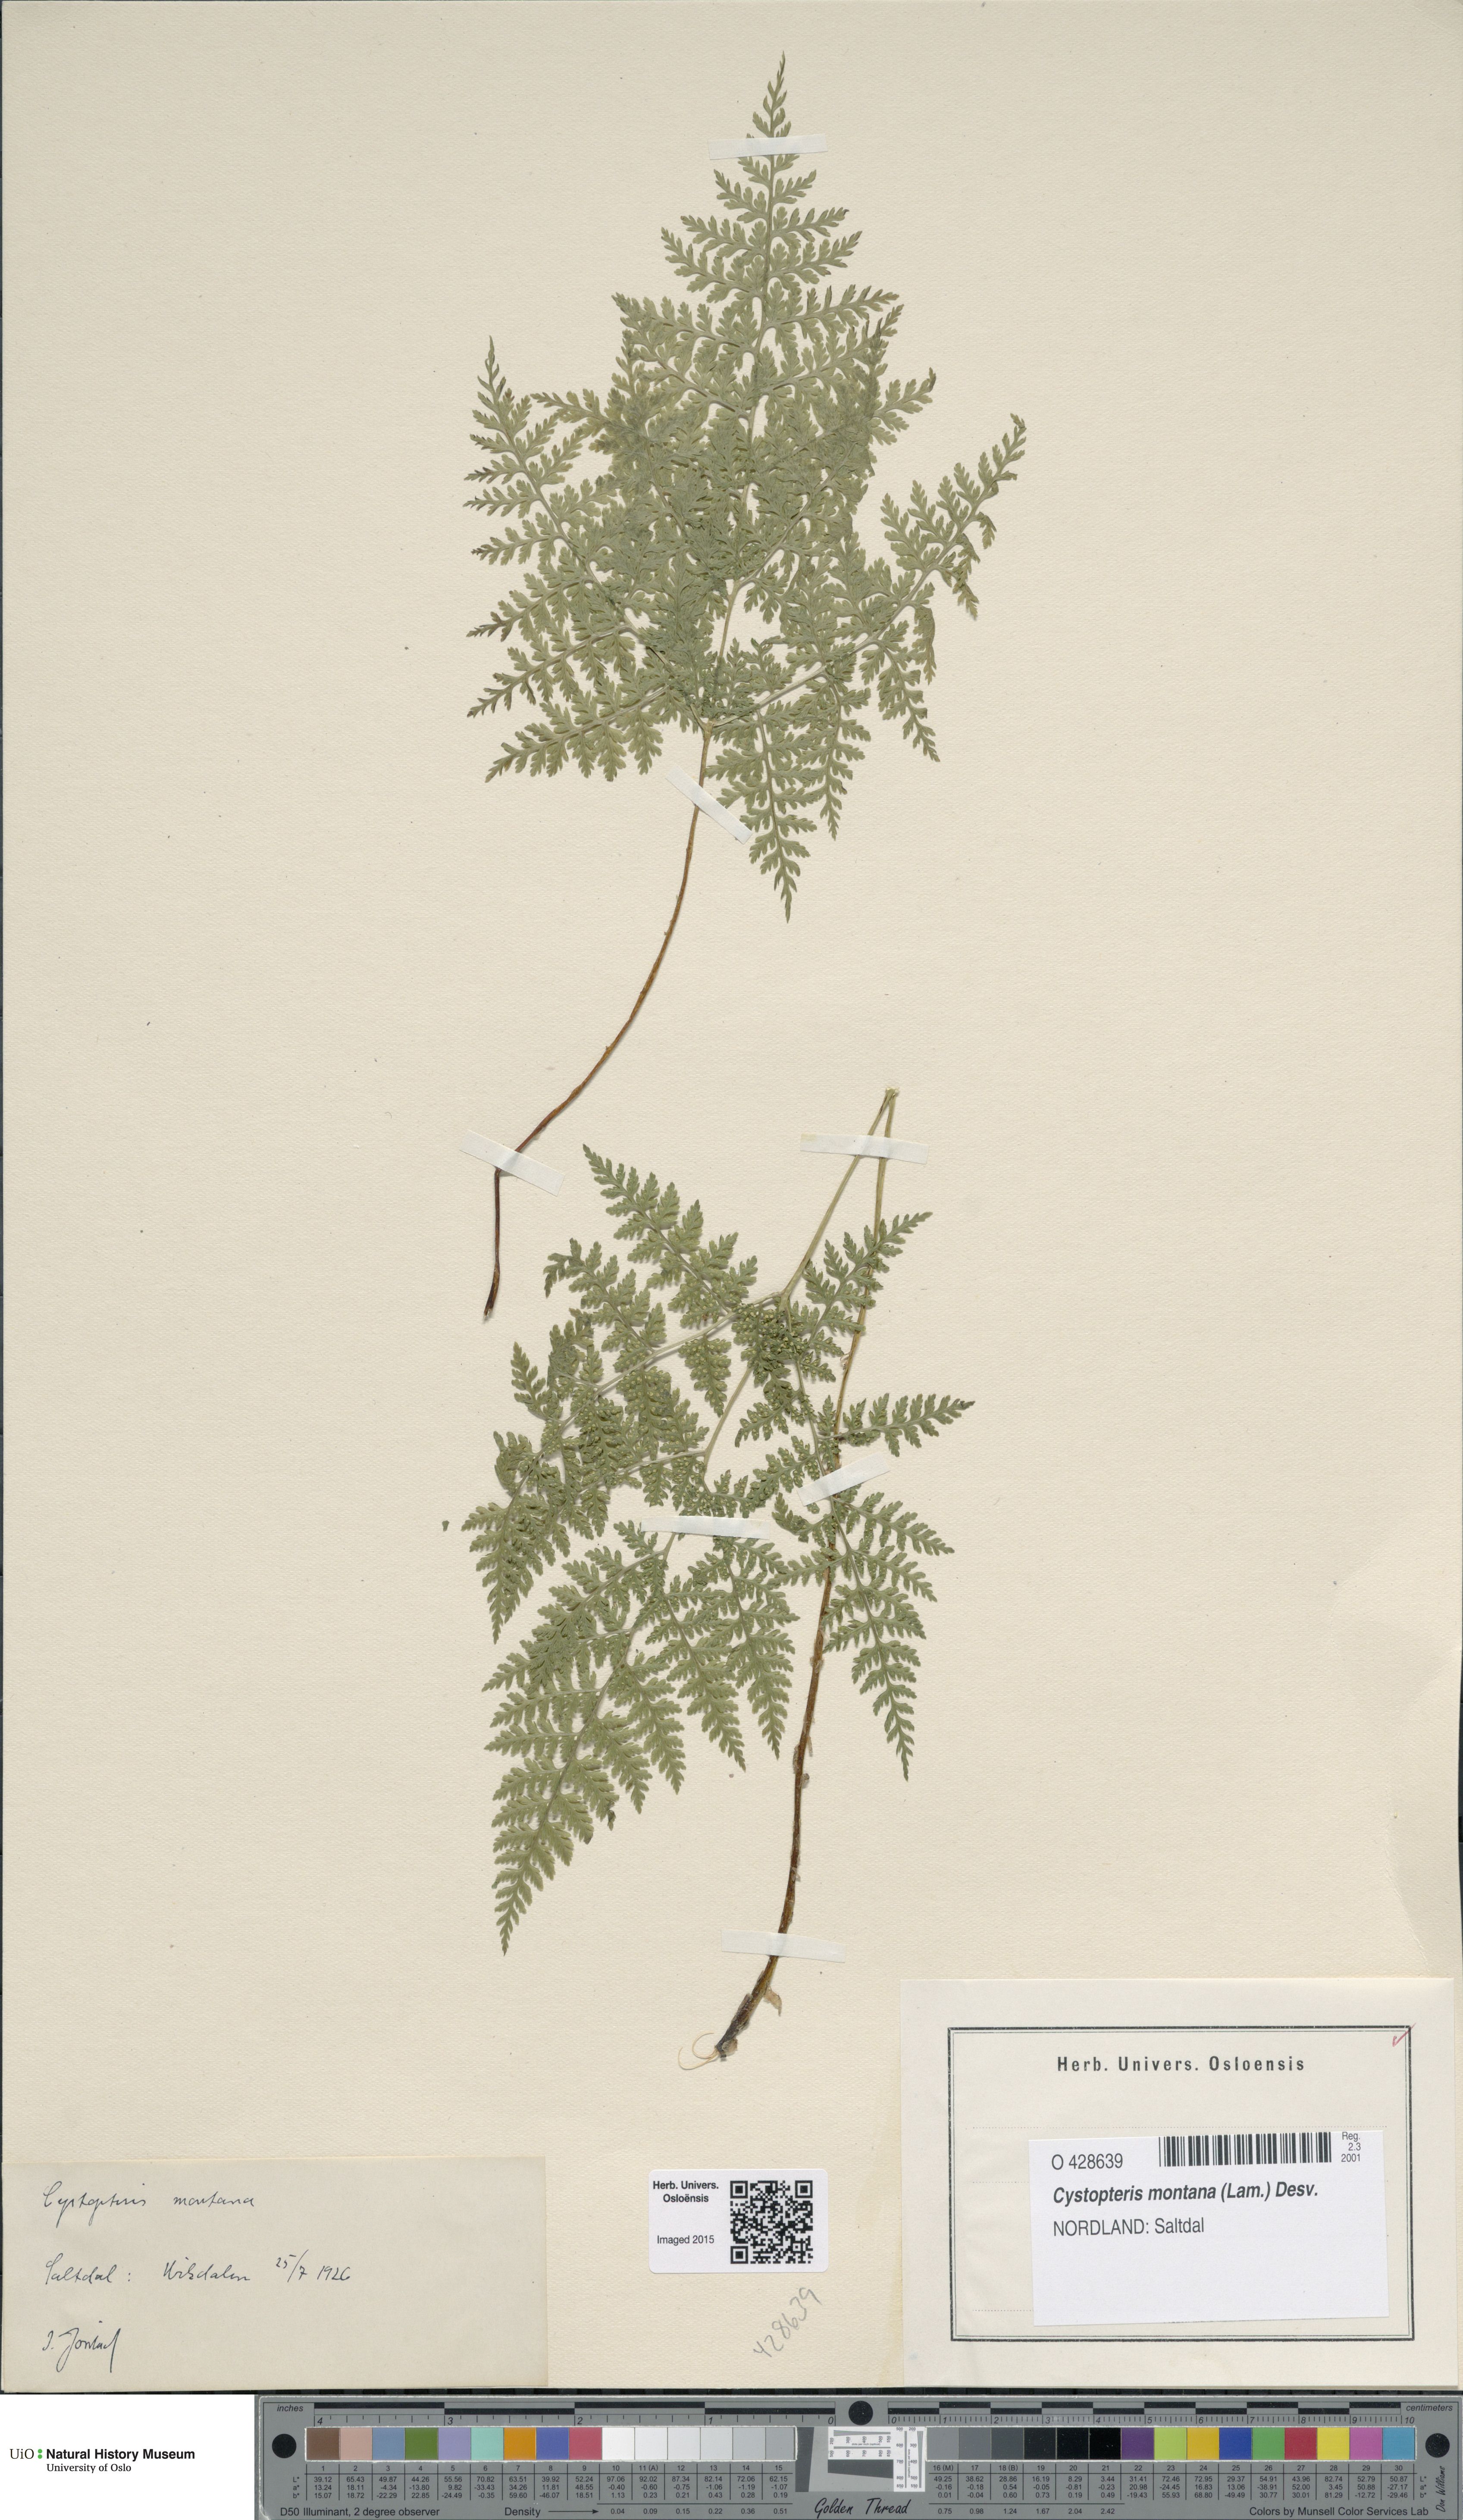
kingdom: Plantae
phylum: Tracheophyta
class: Polypodiopsida
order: Polypodiales
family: Cystopteridaceae
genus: Cystopteris
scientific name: Cystopteris montana
